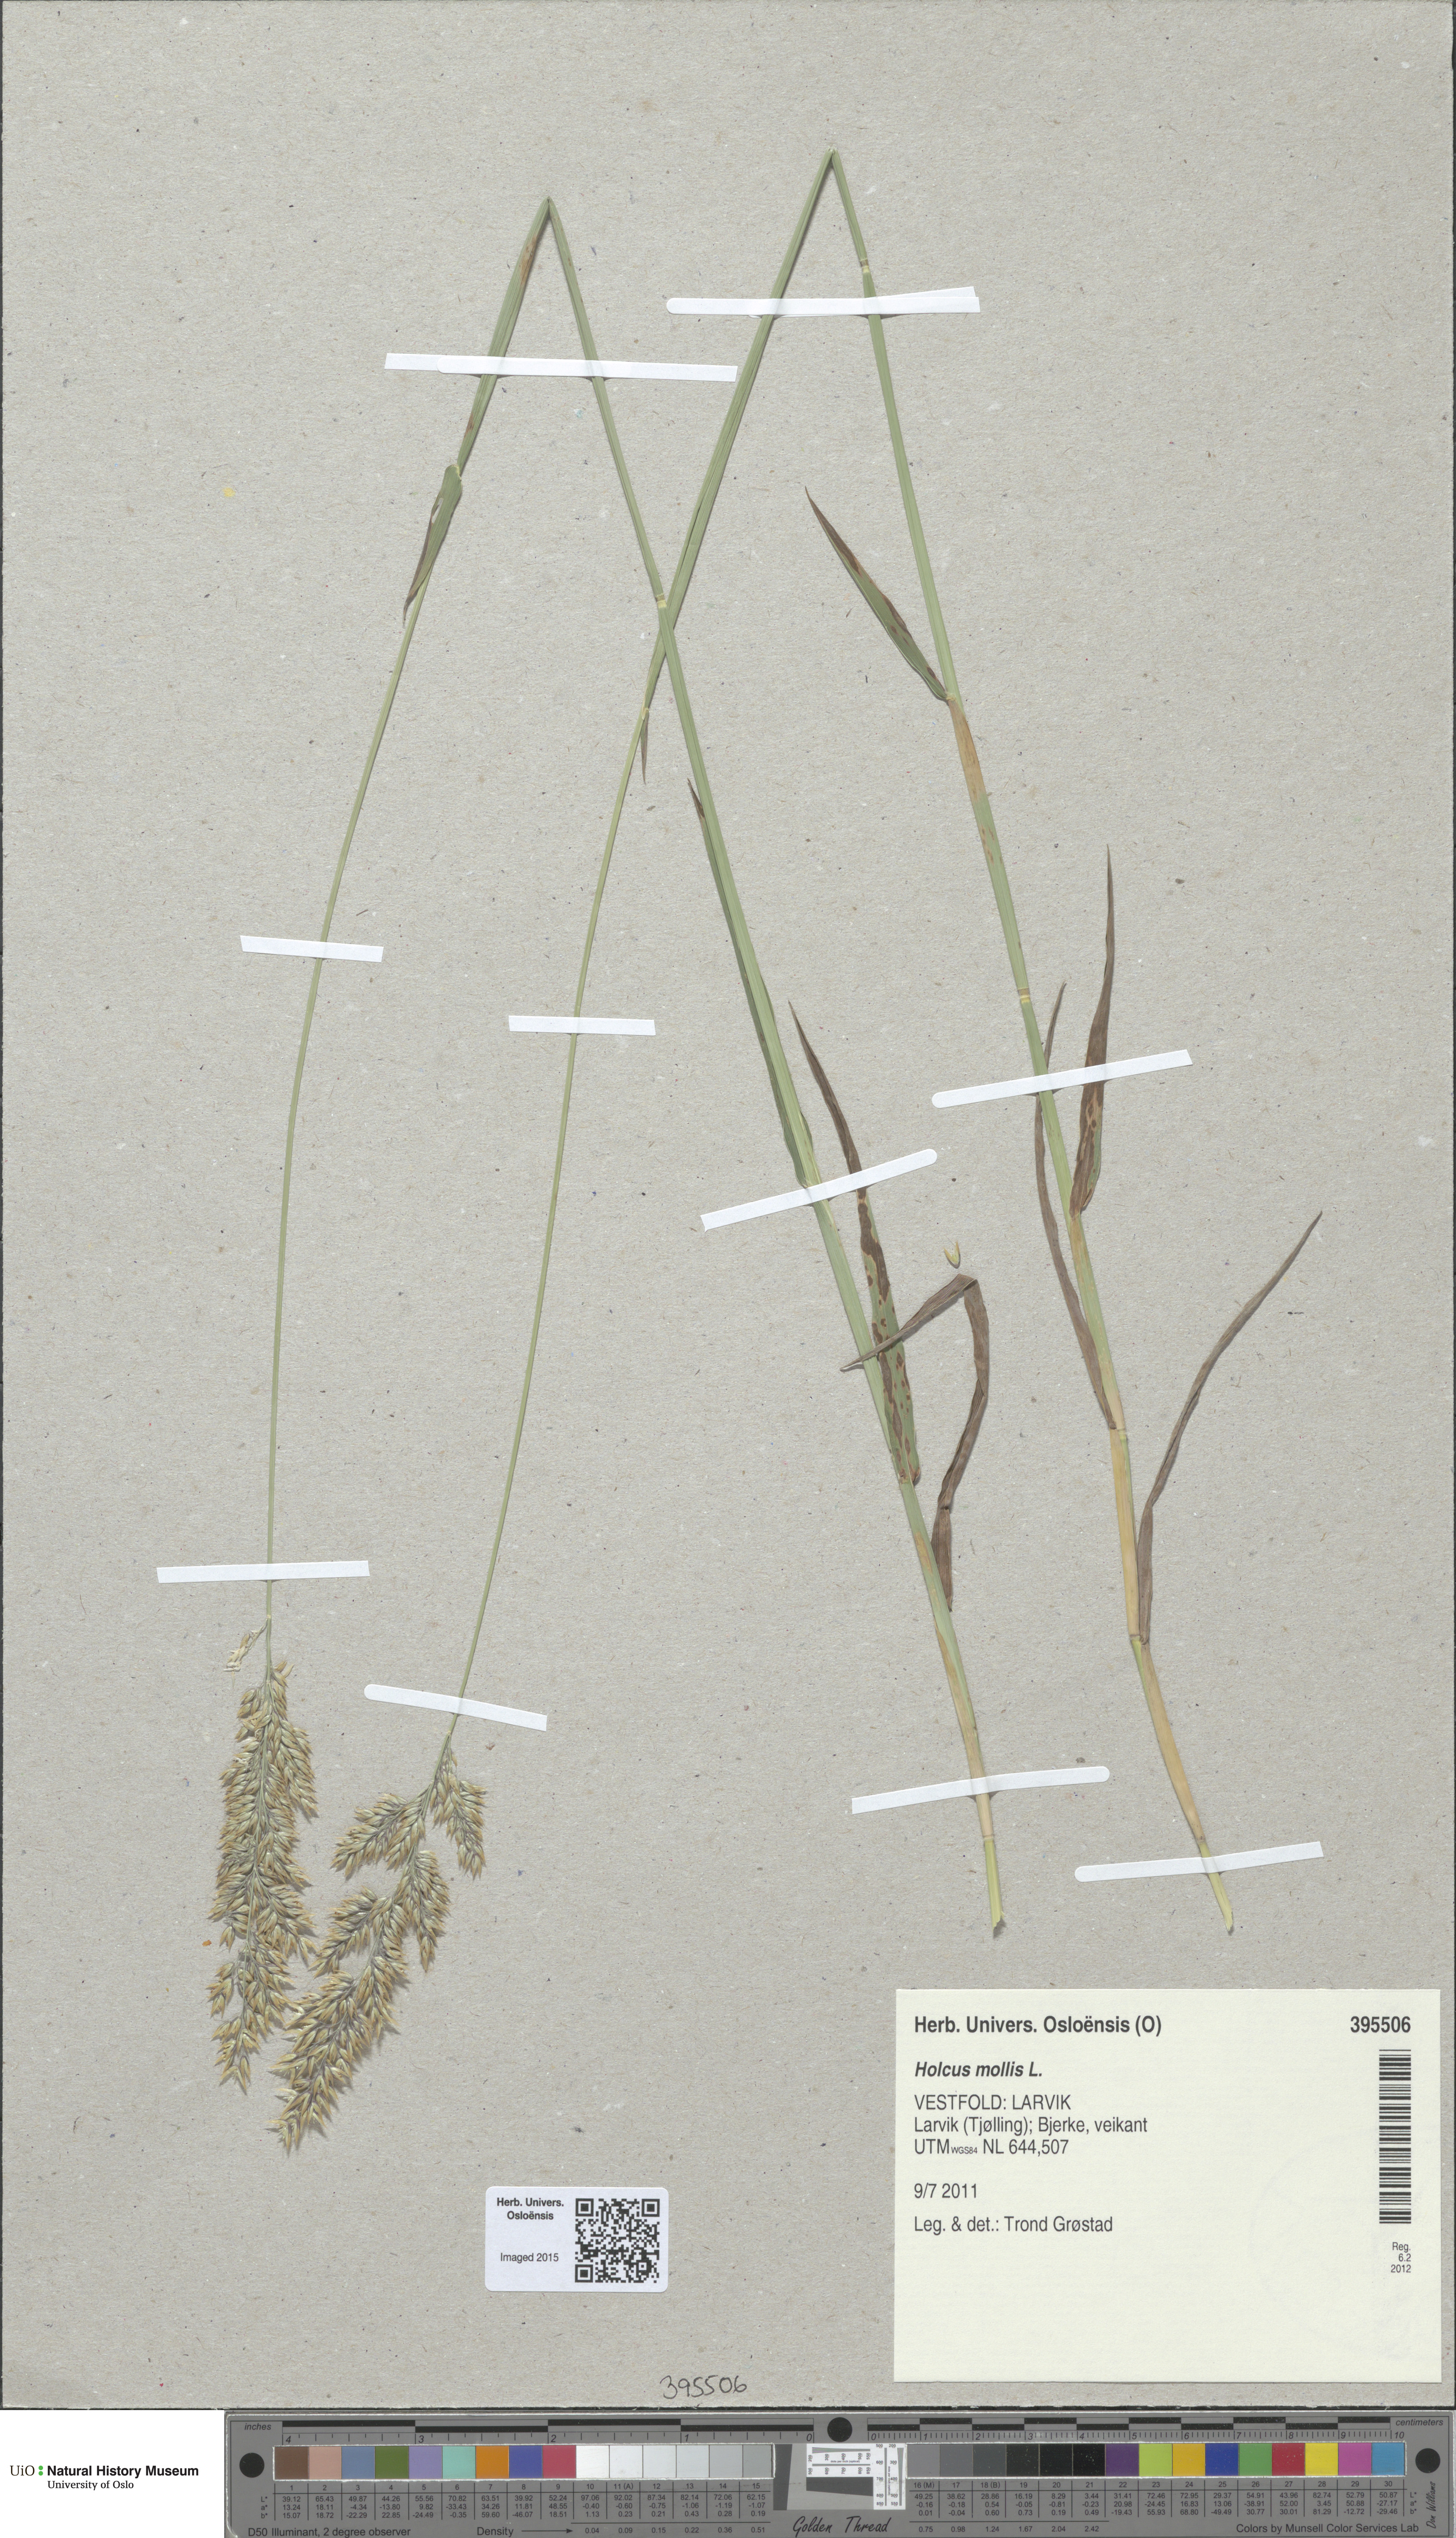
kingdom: Plantae
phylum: Tracheophyta
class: Liliopsida
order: Poales
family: Poaceae
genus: Holcus
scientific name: Holcus mollis
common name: Creeping velvetgrass
